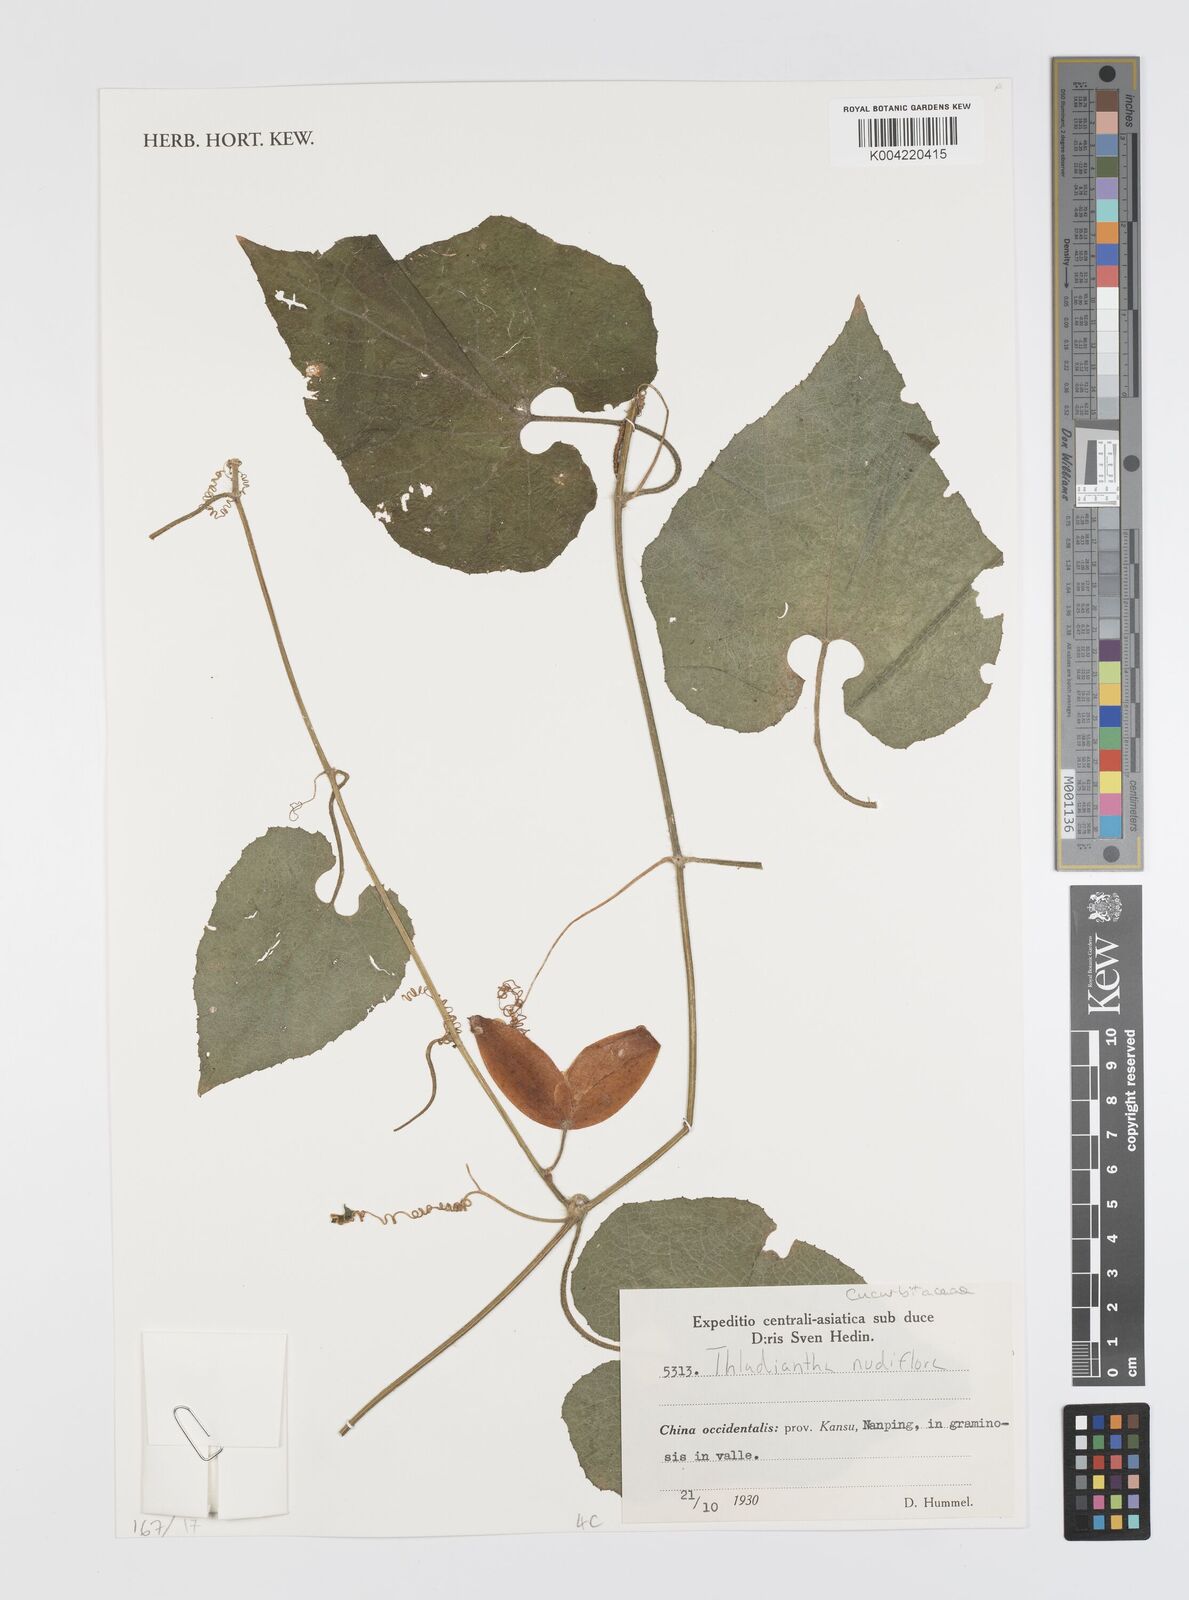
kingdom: Plantae
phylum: Tracheophyta
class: Magnoliopsida
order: Cucurbitales
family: Cucurbitaceae
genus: Thladiantha
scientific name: Thladiantha nudiflora
